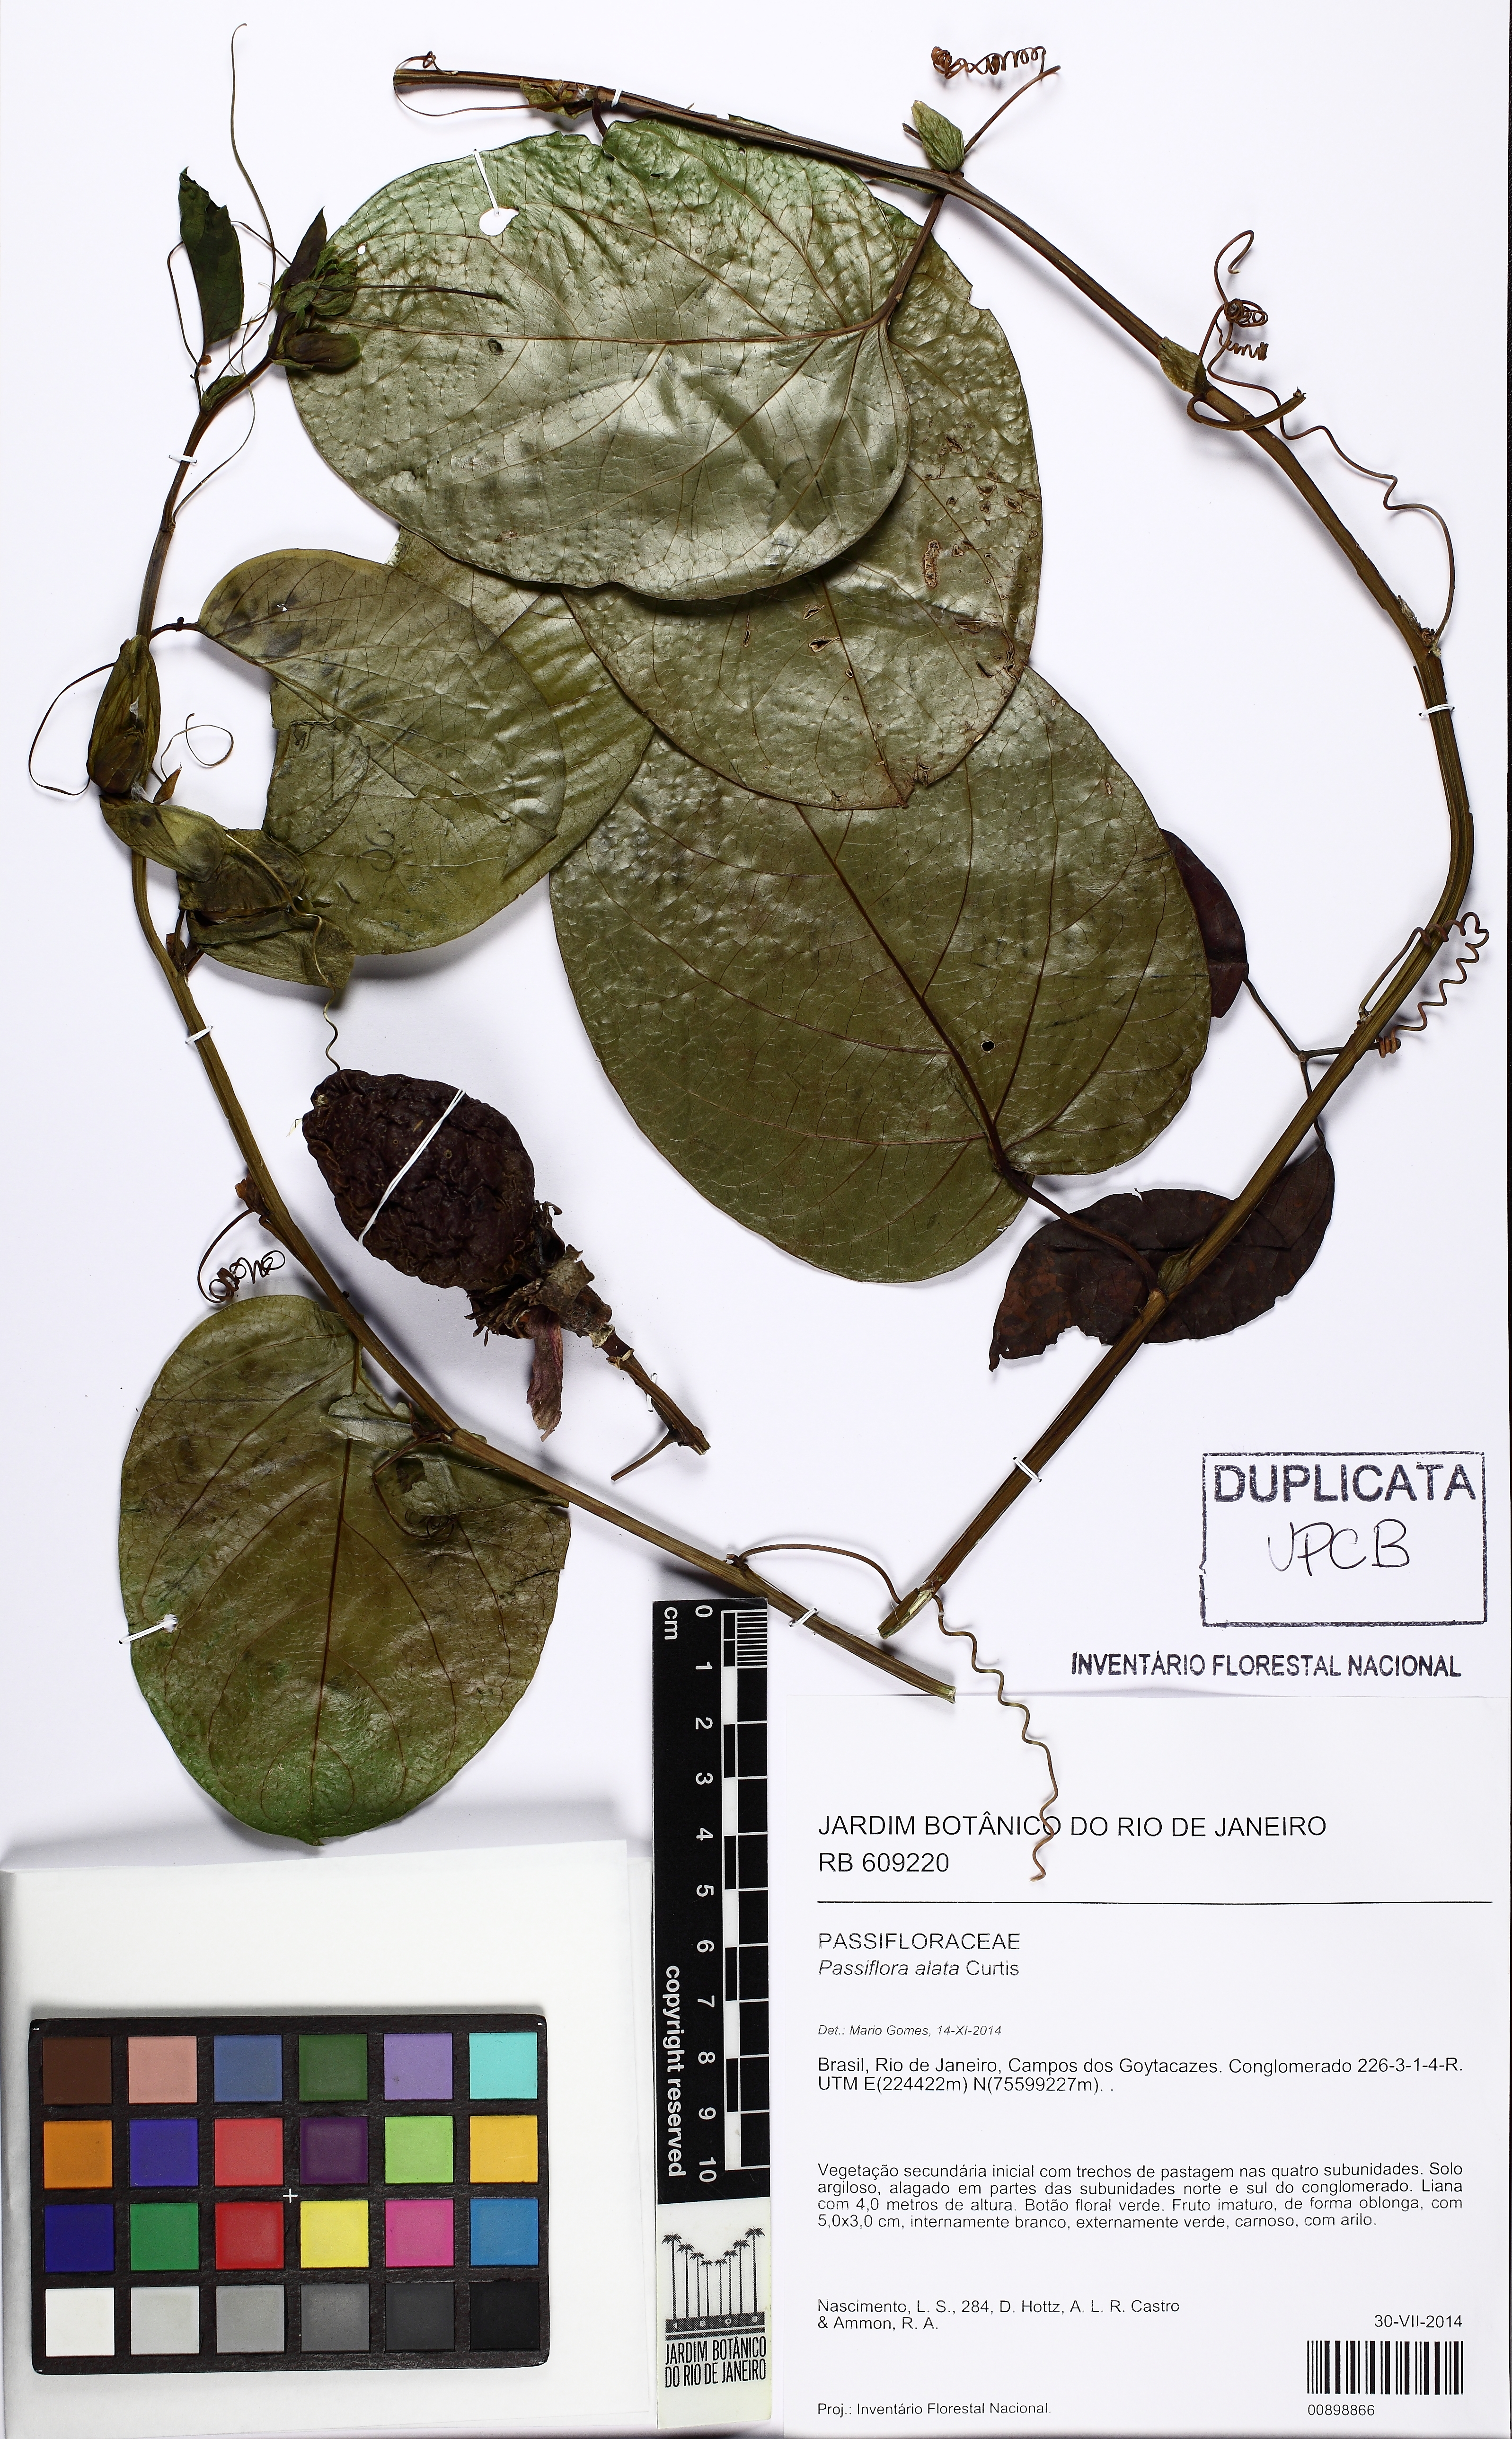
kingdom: Plantae
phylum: Tracheophyta
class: Magnoliopsida
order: Malpighiales
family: Passifloraceae
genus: Passiflora
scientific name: Passiflora alata
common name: Wing-stemmed passion flower
